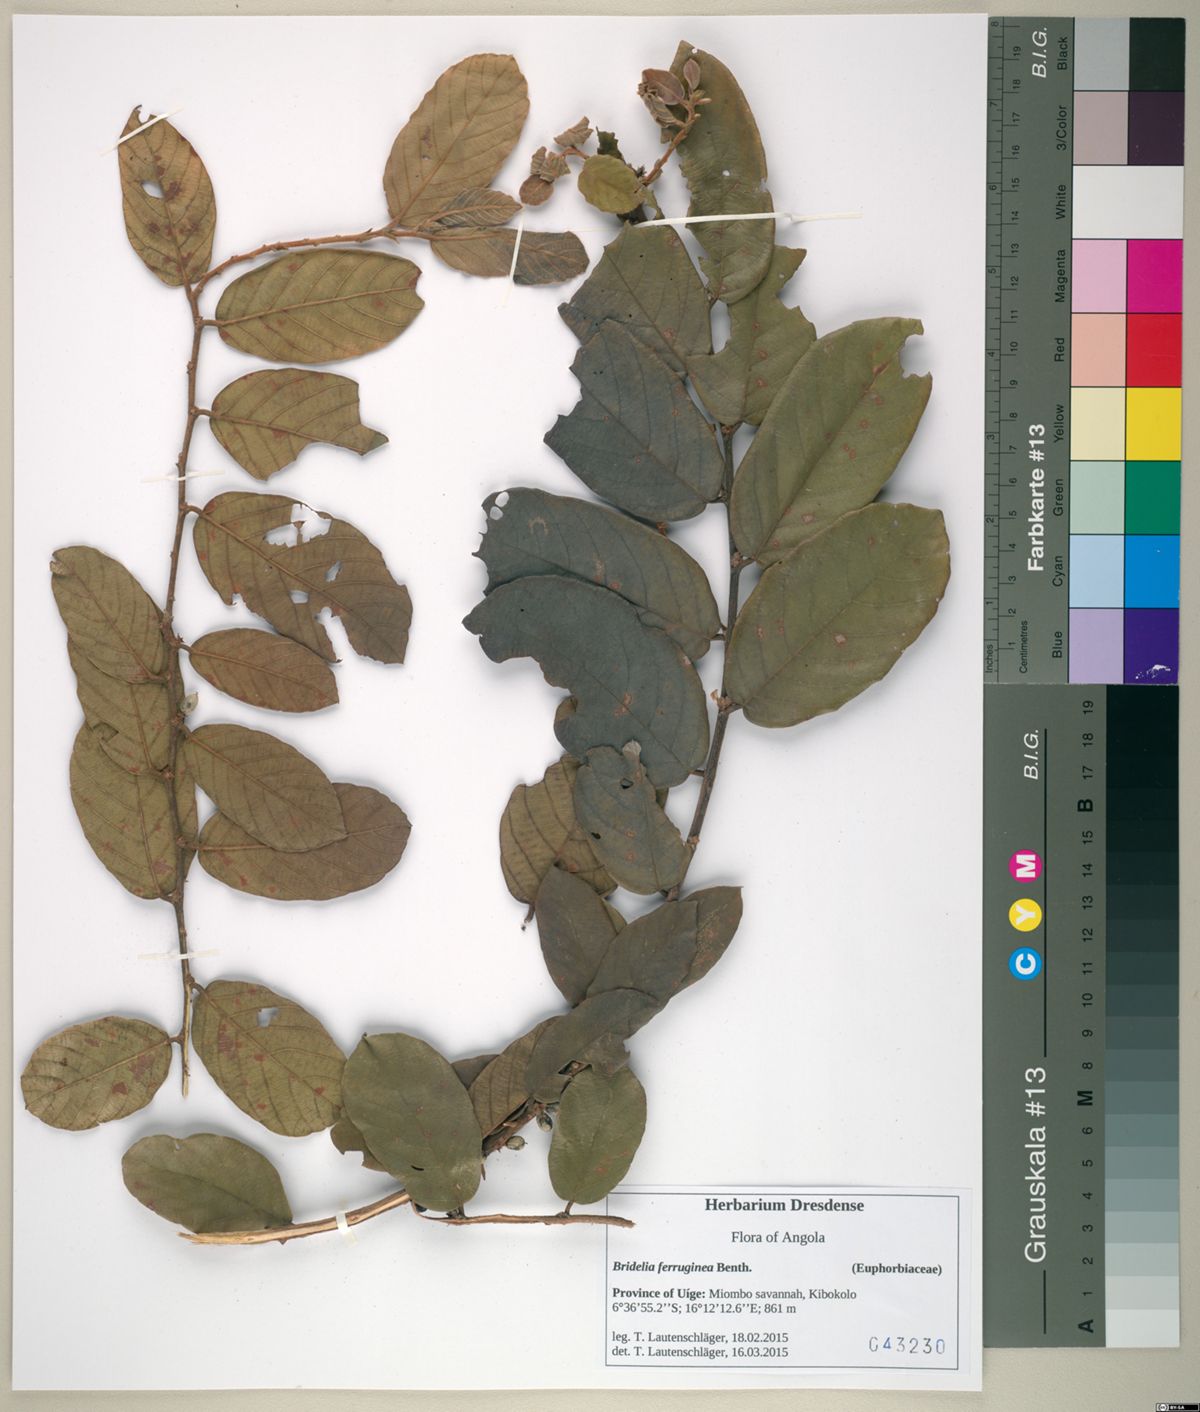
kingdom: Plantae
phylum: Tracheophyta
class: Magnoliopsida
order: Malpighiales
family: Phyllanthaceae
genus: Bridelia
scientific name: Bridelia ferruginea
